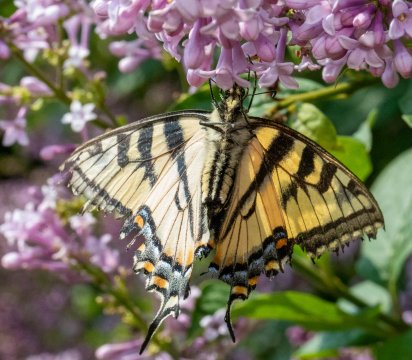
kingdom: Animalia
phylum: Arthropoda
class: Insecta
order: Lepidoptera
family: Papilionidae
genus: Pterourus
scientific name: Pterourus canadensis
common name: Canadian Tiger Swallowtail
